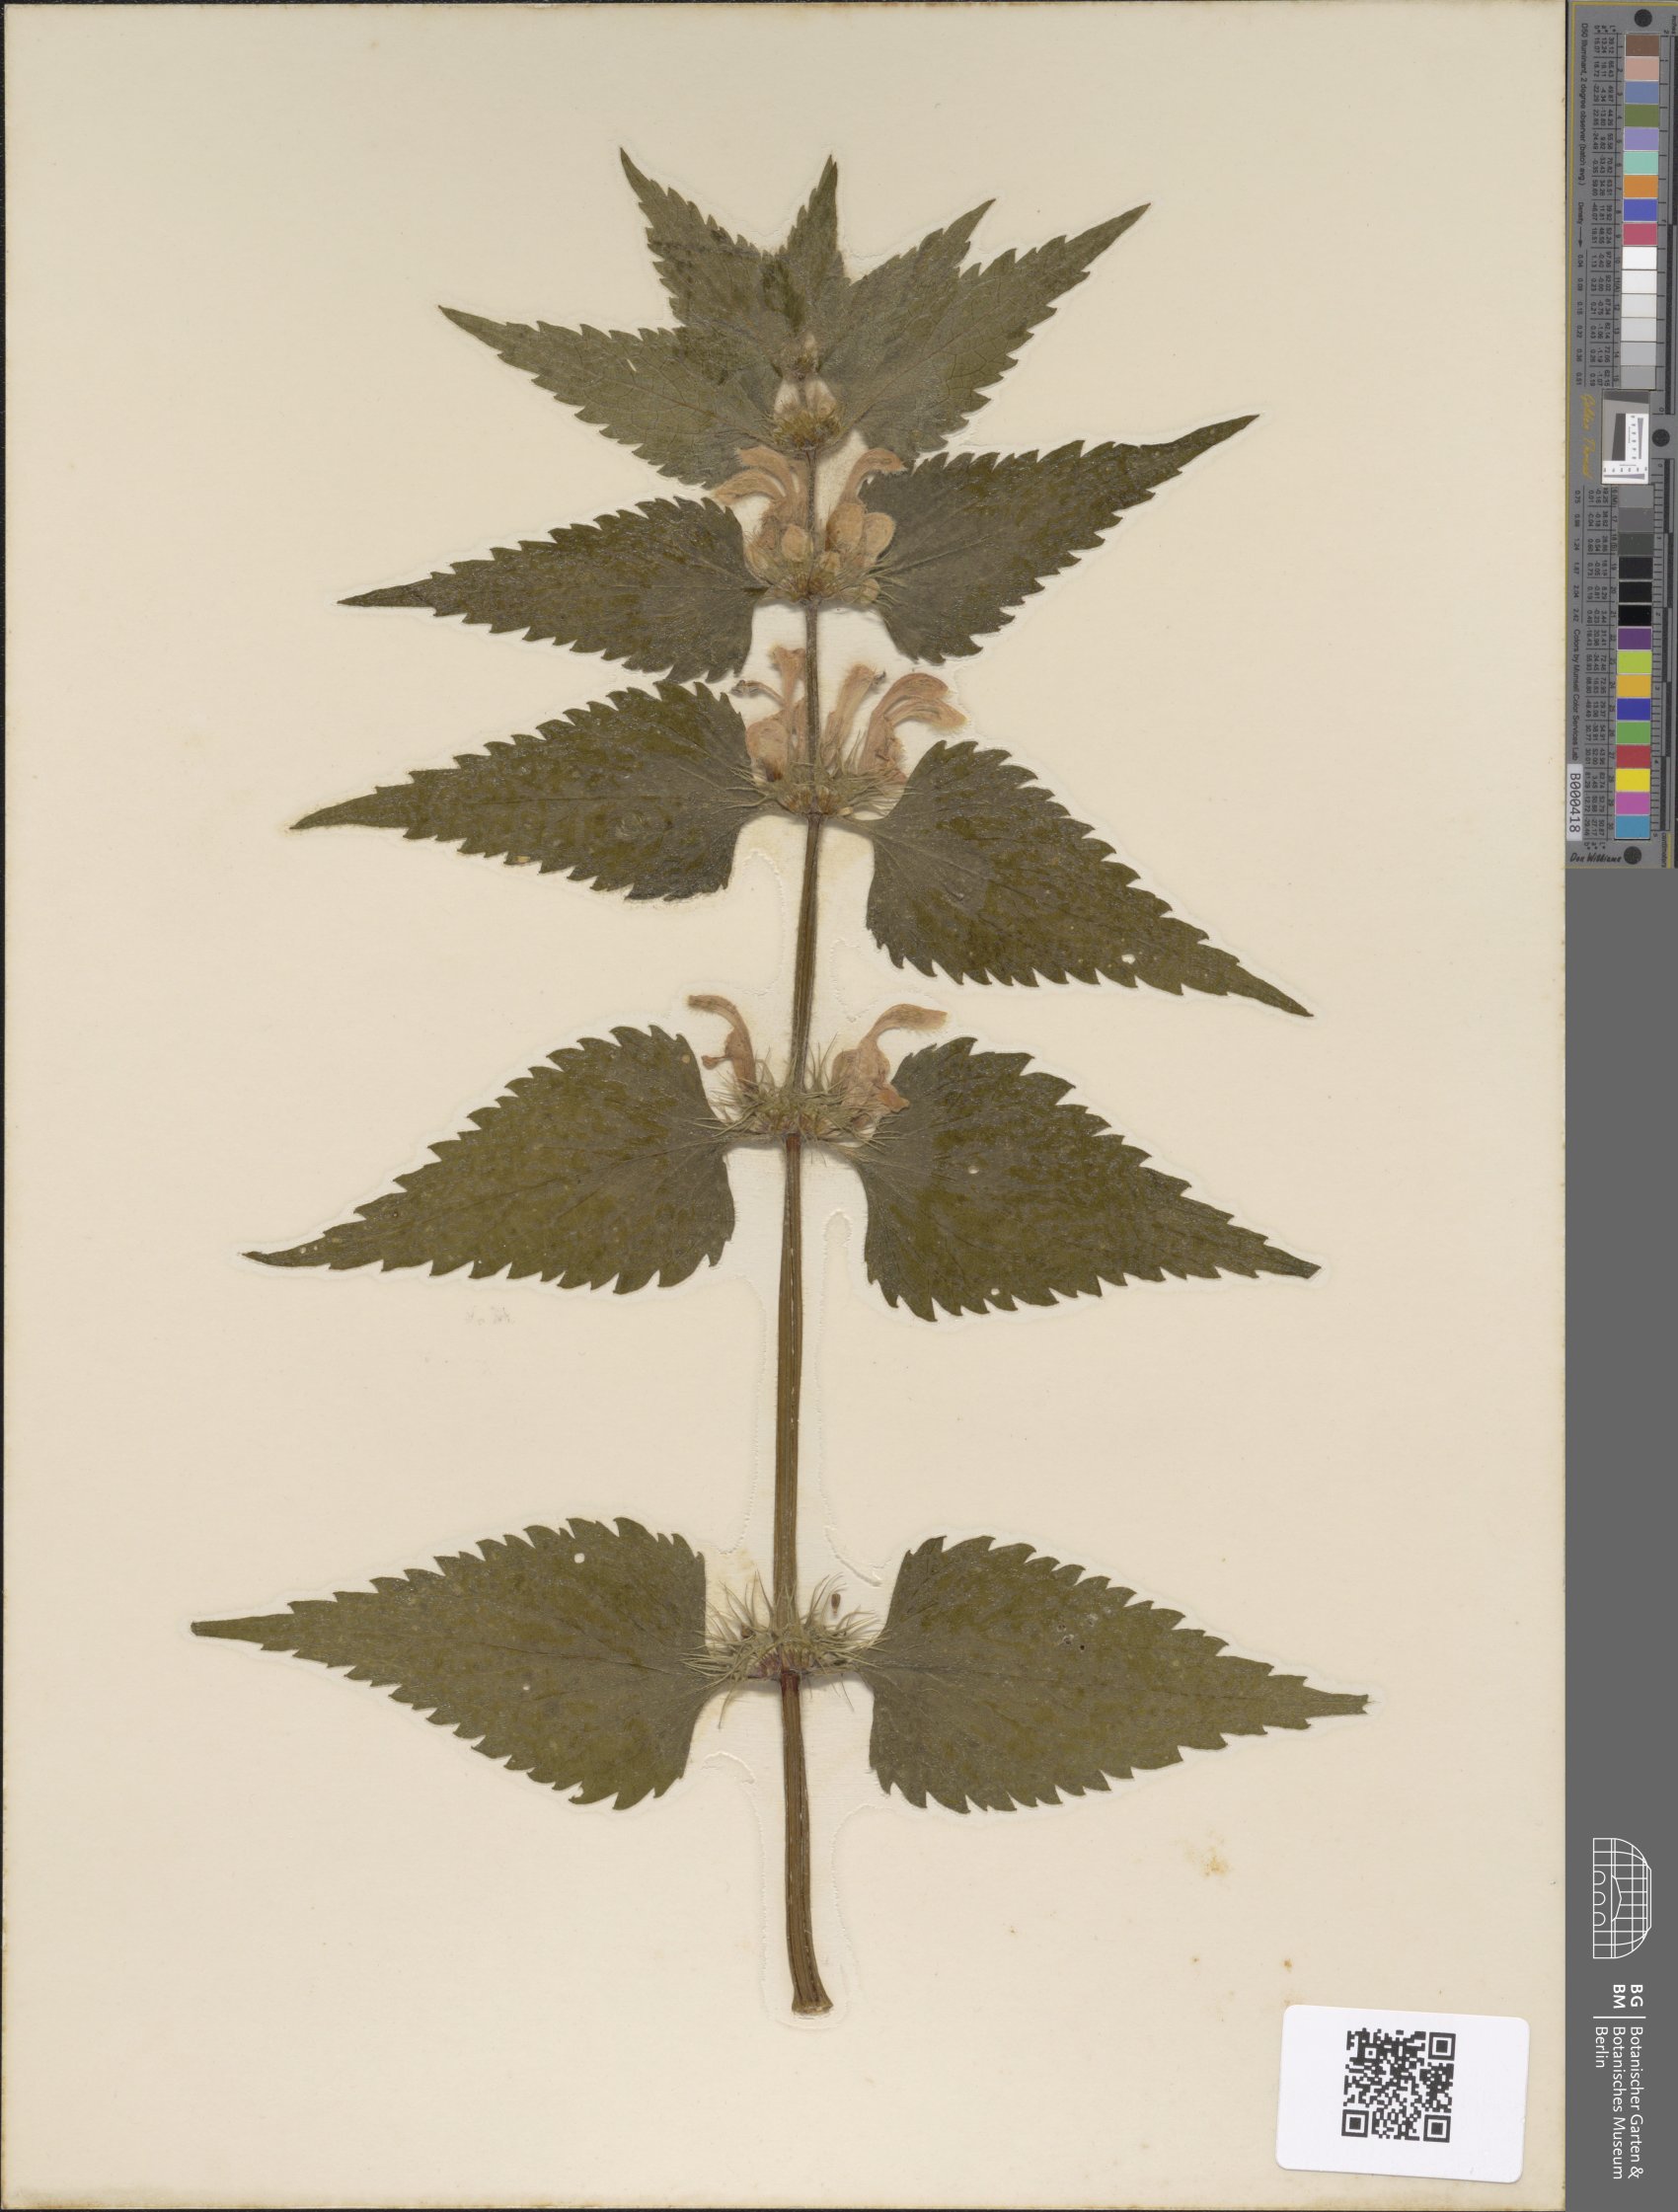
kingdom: Plantae
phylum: Tracheophyta
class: Magnoliopsida
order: Lamiales
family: Lamiaceae
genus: Lamium
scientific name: Lamium album
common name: White dead-nettle
